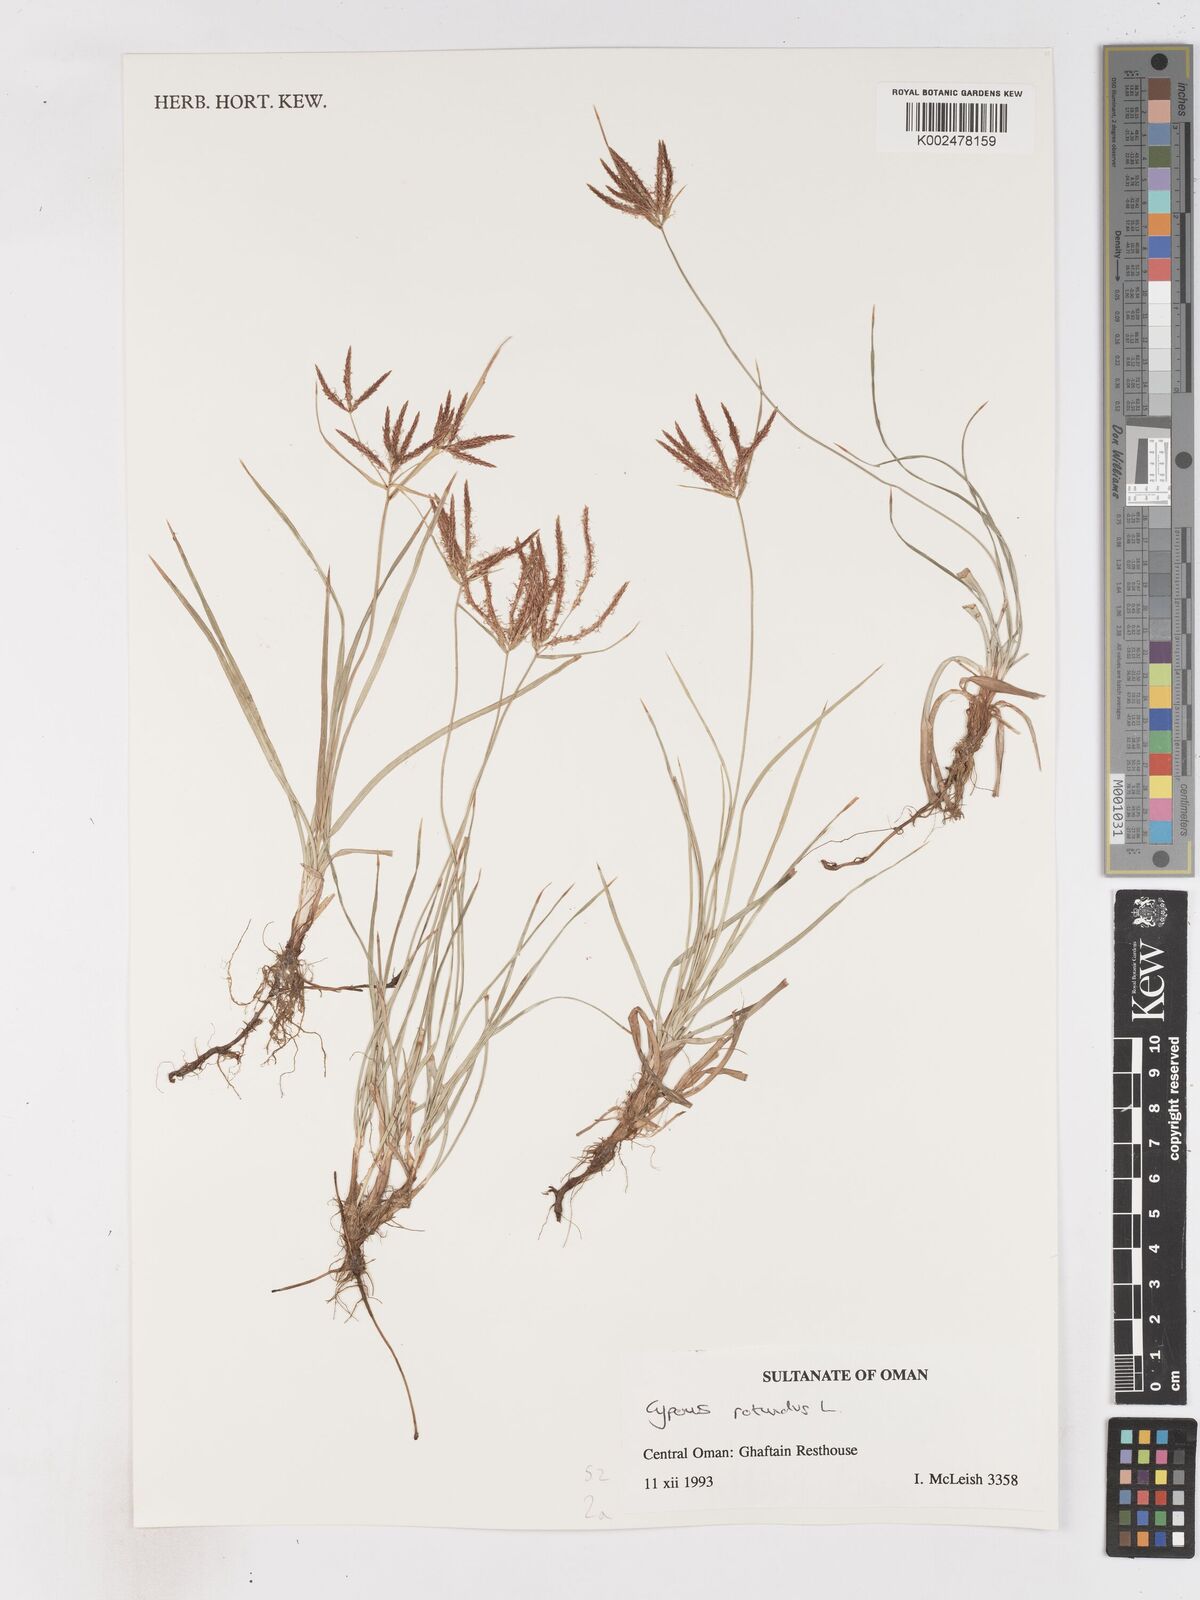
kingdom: Plantae
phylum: Tracheophyta
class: Liliopsida
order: Poales
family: Cyperaceae
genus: Cyperus
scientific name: Cyperus rotundus
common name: Nutgrass
